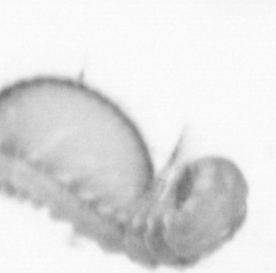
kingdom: Animalia
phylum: Annelida
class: Polychaeta
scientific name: Polychaeta
